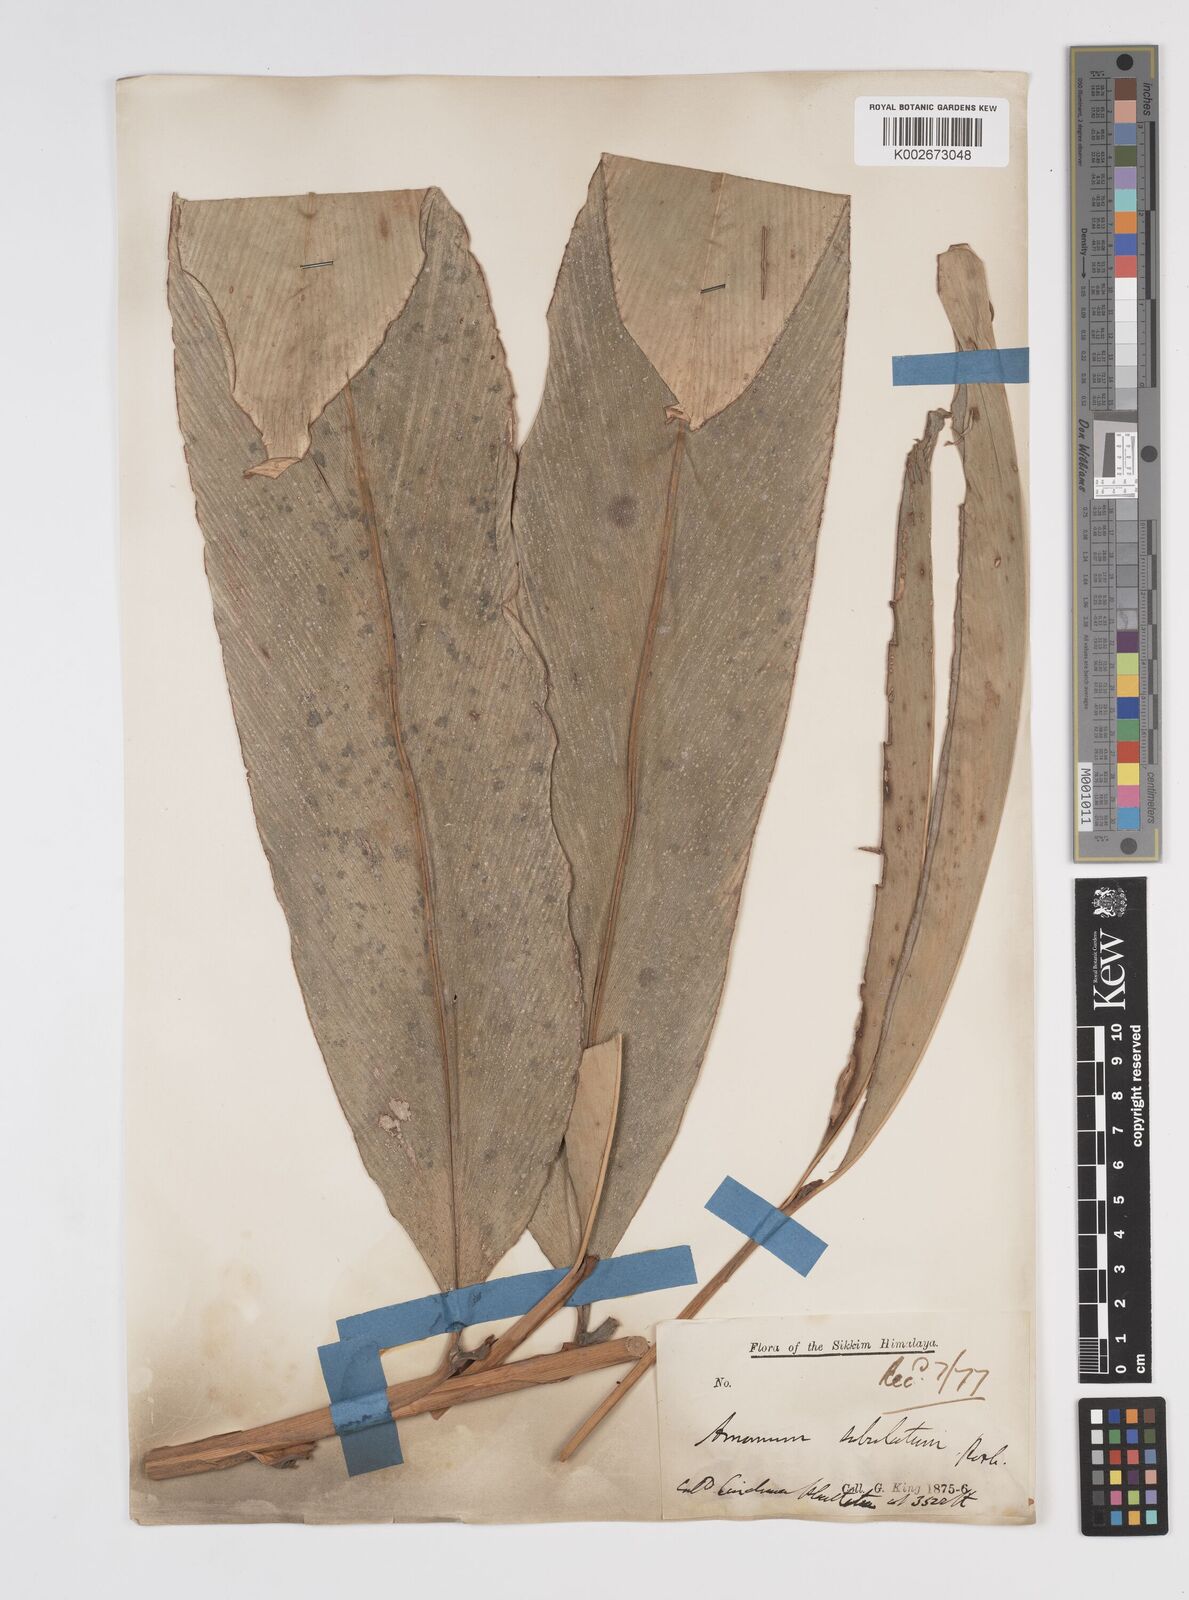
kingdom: Plantae
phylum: Tracheophyta
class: Liliopsida
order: Zingiberales
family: Zingiberaceae
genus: Amomum
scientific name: Amomum subulatum
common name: Black cardamom
